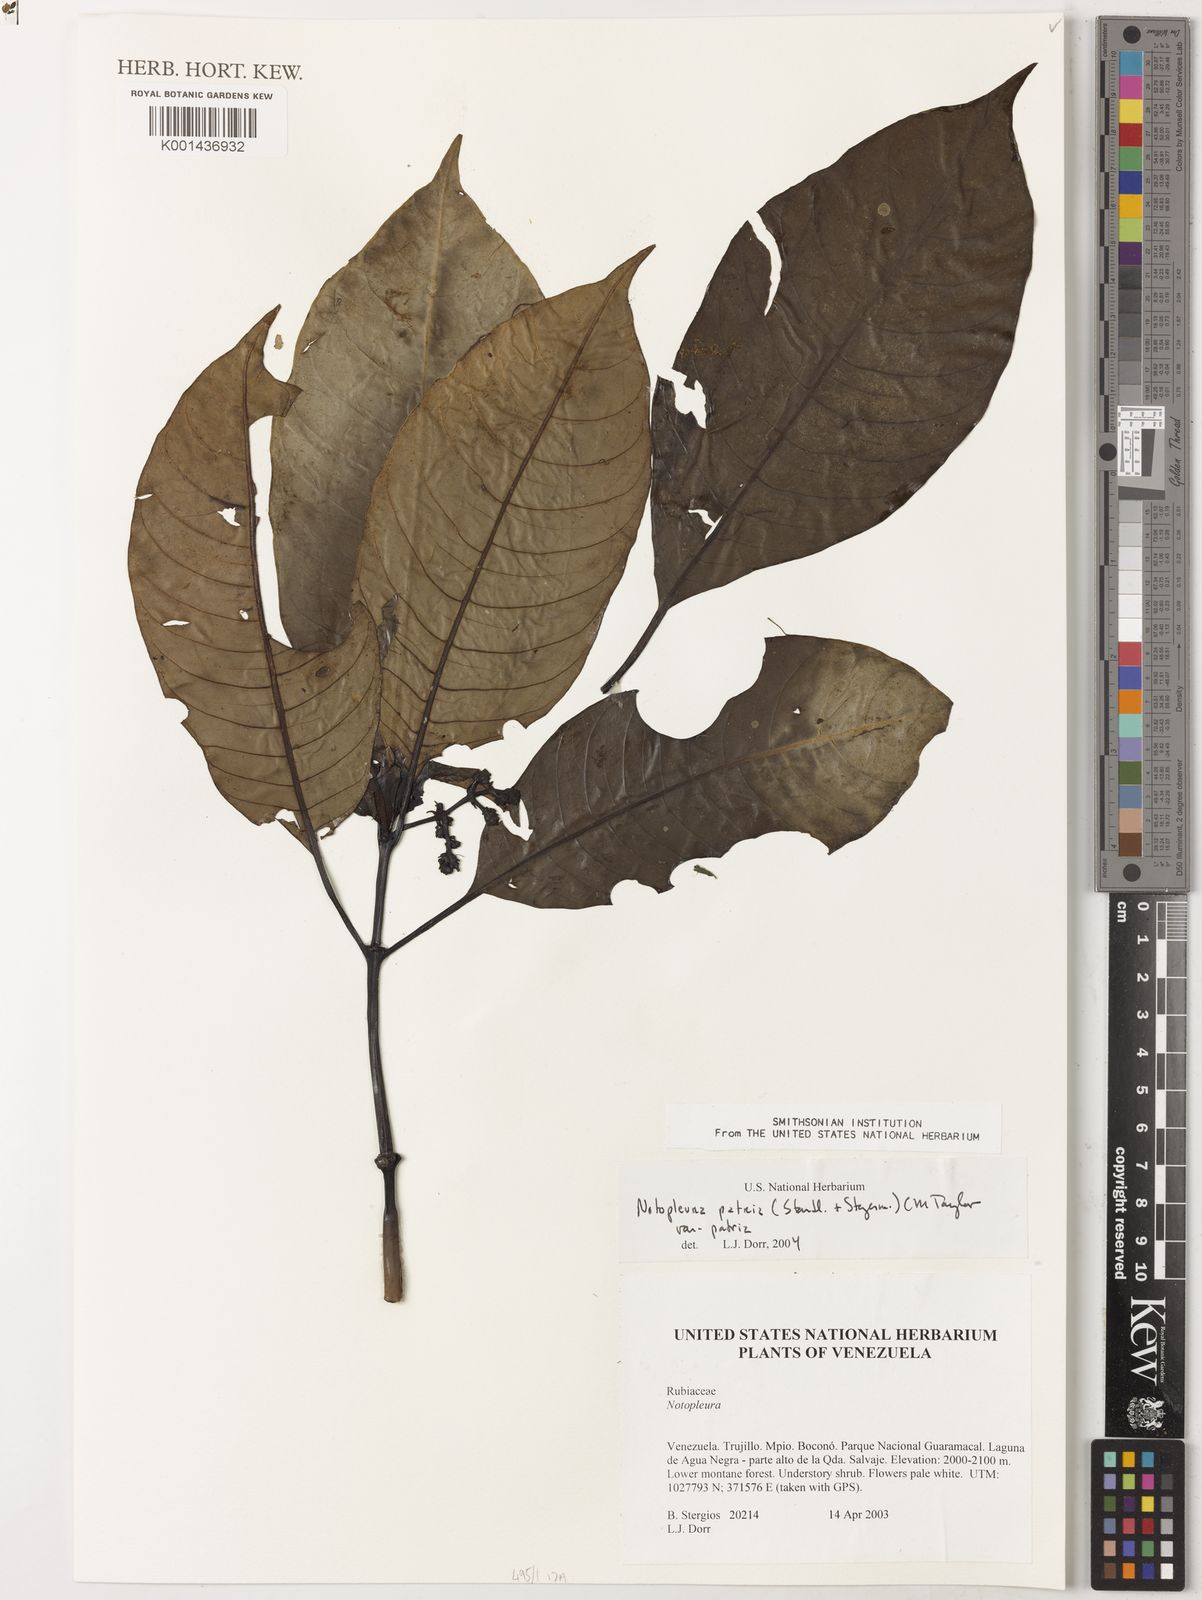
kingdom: Plantae
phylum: Tracheophyta
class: Magnoliopsida
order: Gentianales
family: Rubiaceae
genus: Notopleura
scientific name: Notopleura patria
